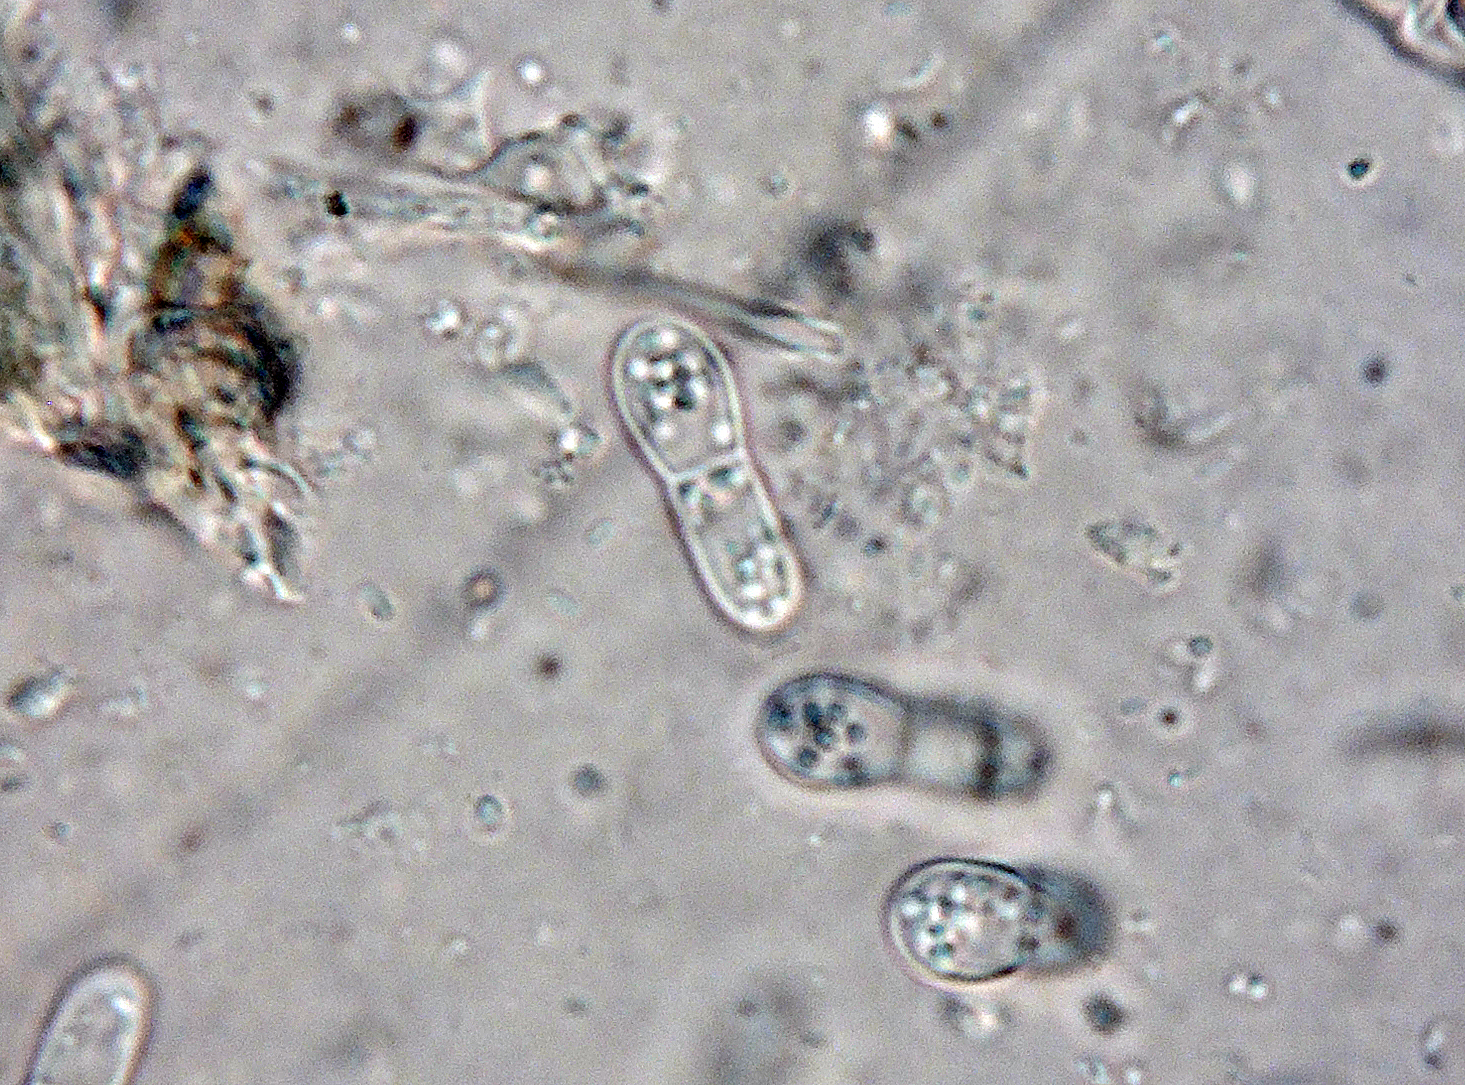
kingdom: Fungi
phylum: Ascomycota
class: Arthoniomycetes
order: Arthoniales
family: Arthoniaceae
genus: Bryostigma
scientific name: Bryostigma parietinarium
